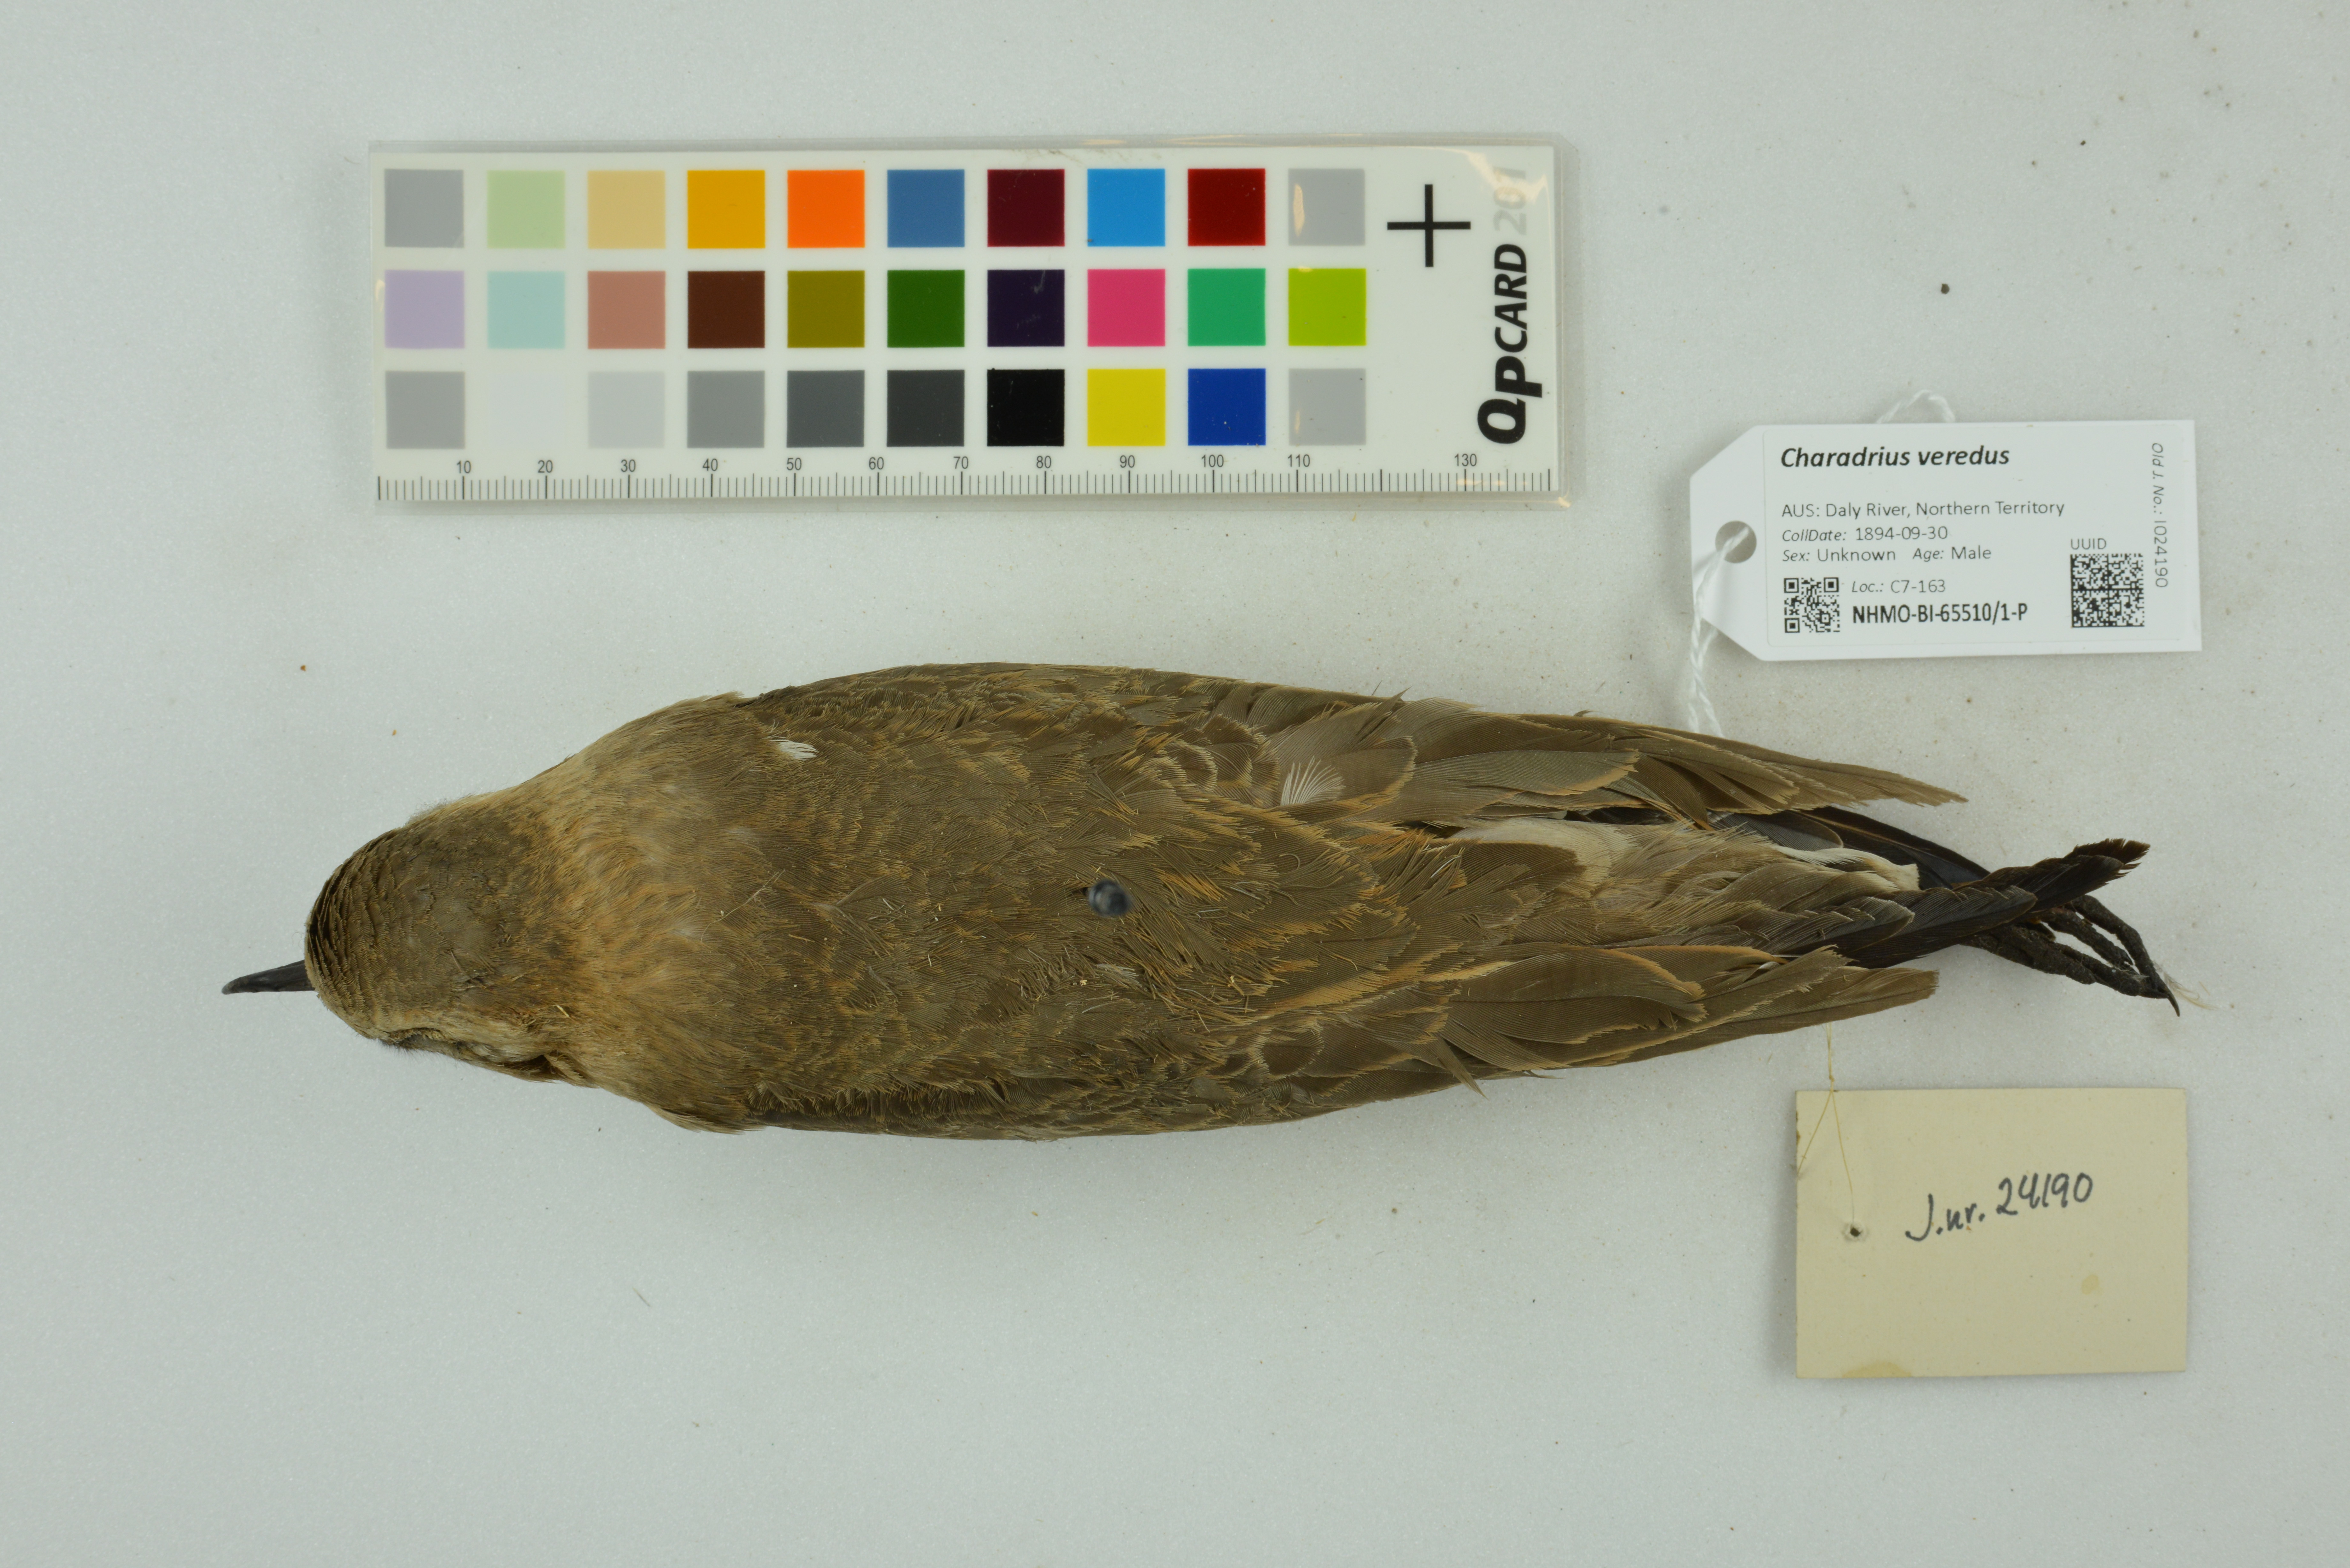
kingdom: Animalia
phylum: Chordata
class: Aves
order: Charadriiformes
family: Charadriidae
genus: Charadrius
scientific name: Charadrius veredus
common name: Oriental plover
